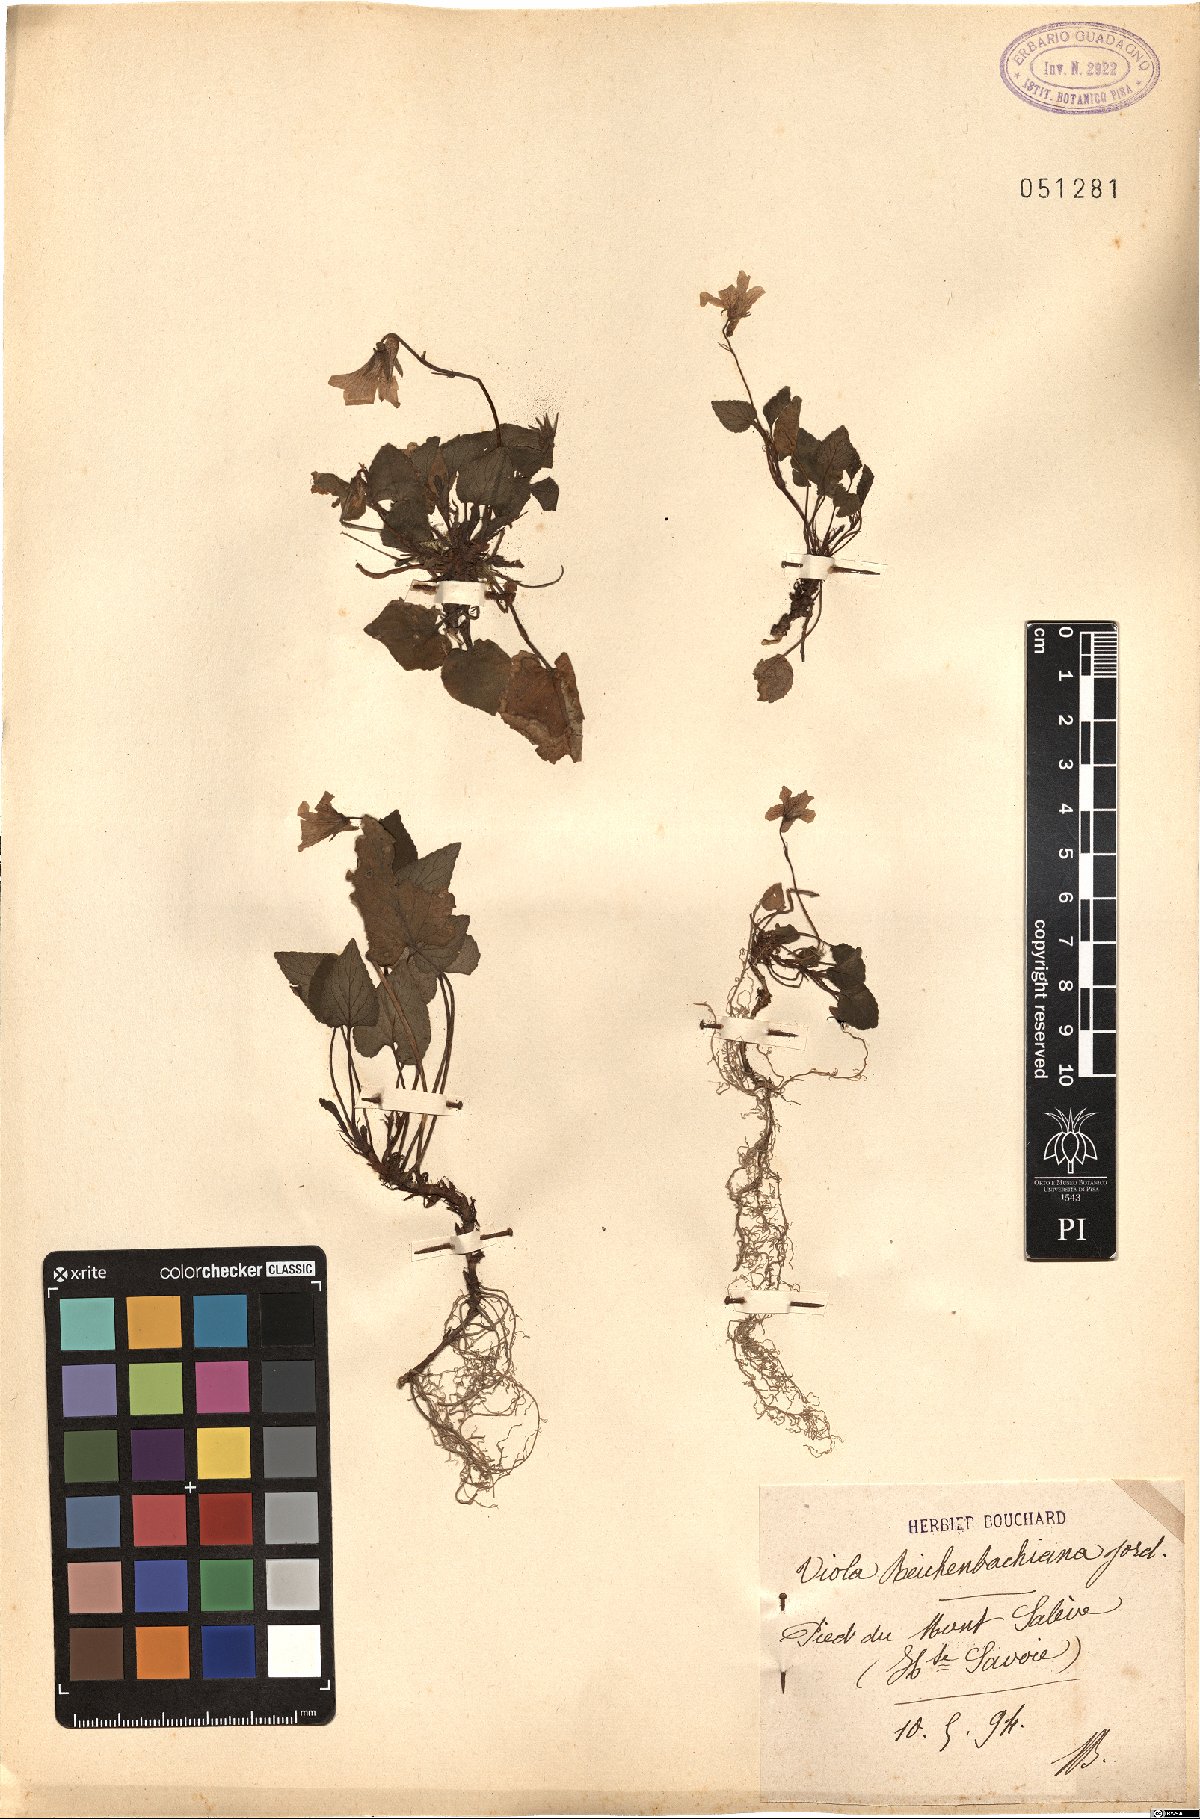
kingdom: Plantae
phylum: Tracheophyta
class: Magnoliopsida
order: Malpighiales
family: Violaceae
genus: Viola
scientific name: Viola reichenbachiana
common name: Early dog-violet
